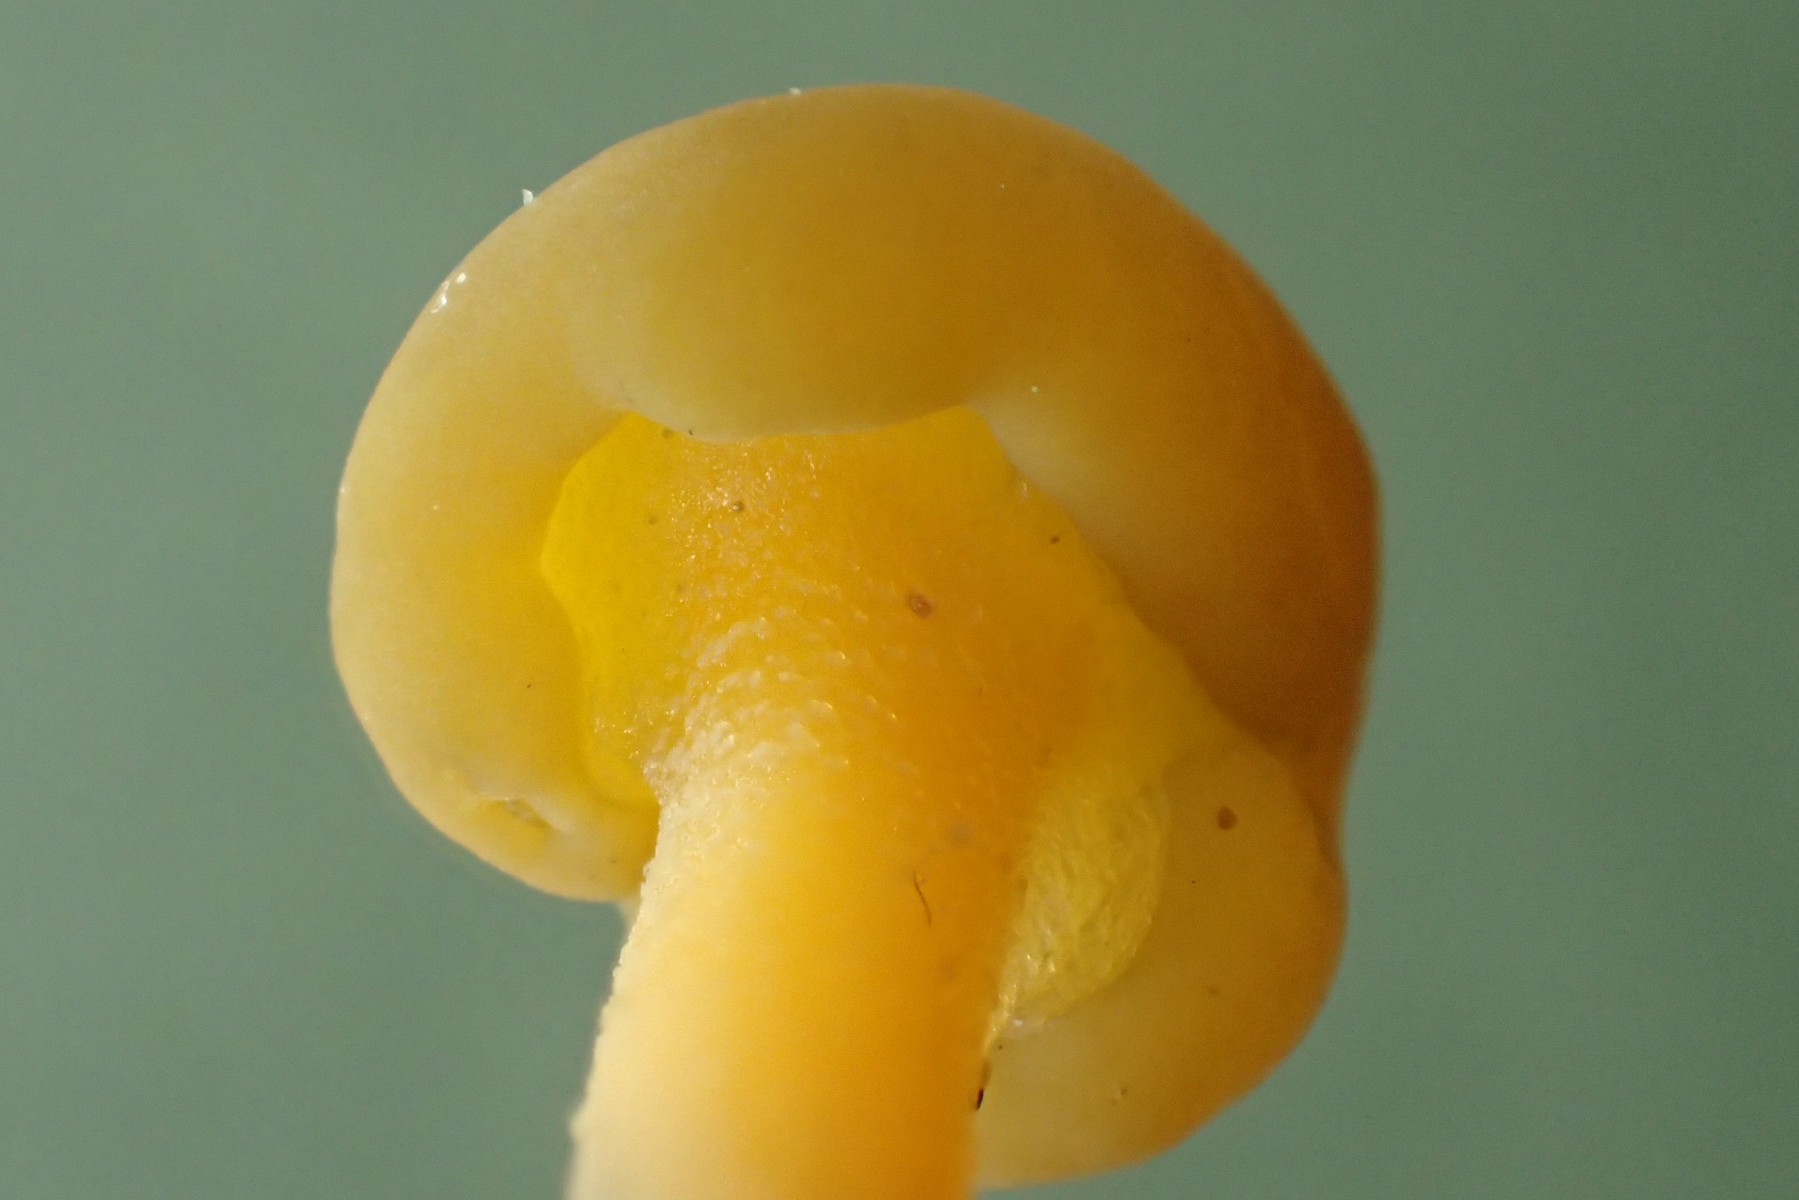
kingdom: Fungi
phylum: Ascomycota
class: Leotiomycetes
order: Leotiales
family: Leotiaceae
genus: Leotia
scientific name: Leotia lubrica
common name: ravsvamp
